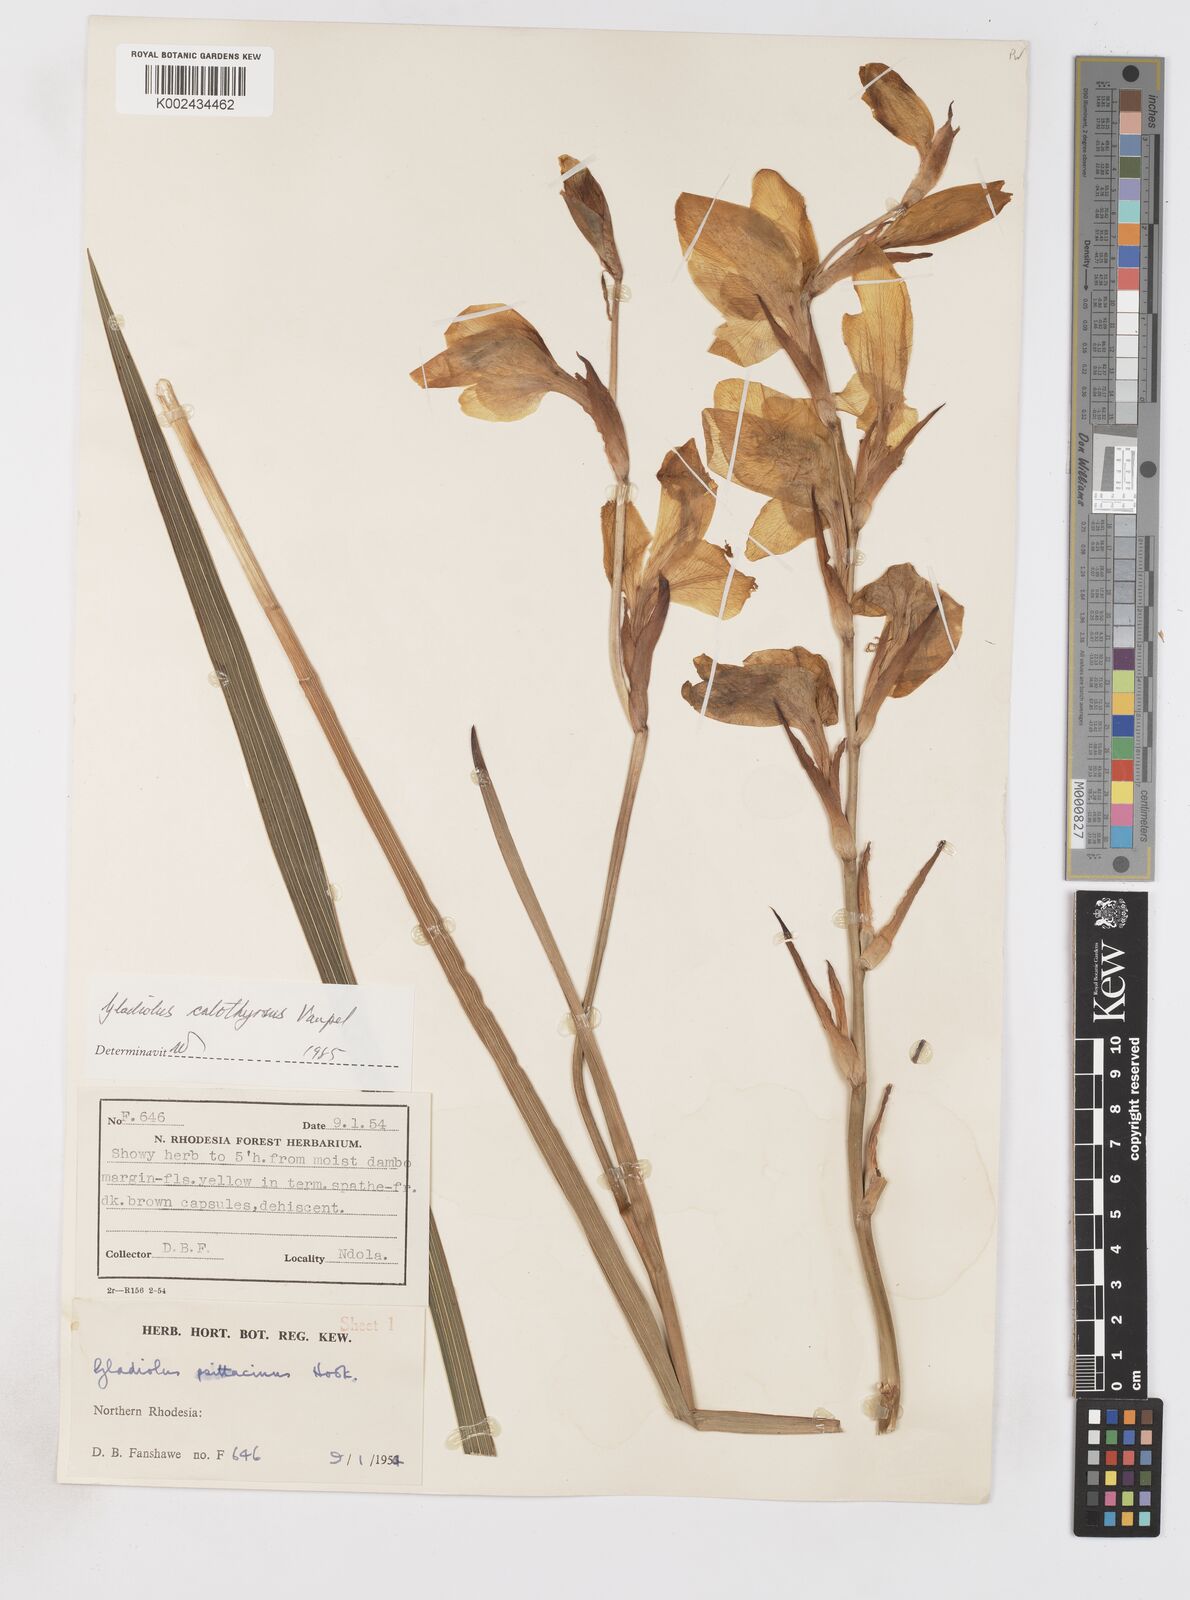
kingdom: Plantae
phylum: Tracheophyta
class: Liliopsida
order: Asparagales
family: Iridaceae
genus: Gladiolus
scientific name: Gladiolus dalenii
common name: Cornflag
